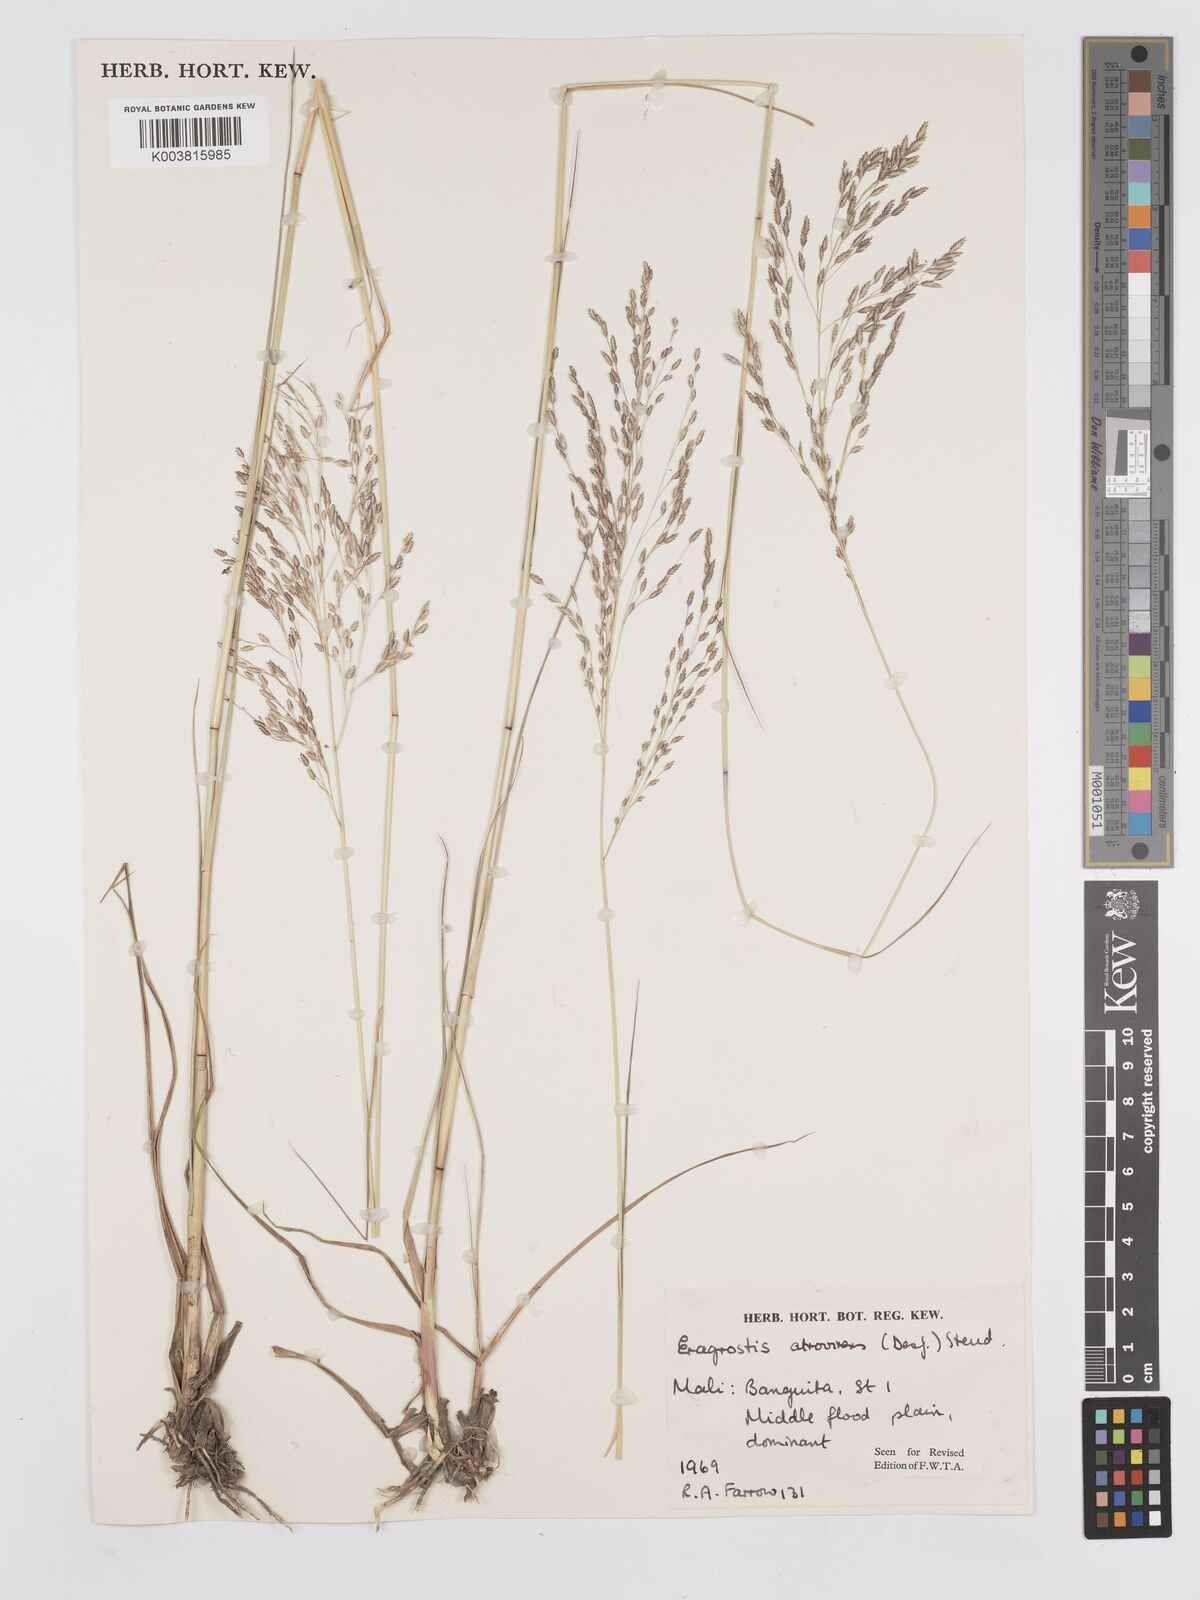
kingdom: Plantae
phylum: Tracheophyta
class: Liliopsida
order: Poales
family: Poaceae
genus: Eragrostis
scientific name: Eragrostis atrovirens
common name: Thalia lovegrass
